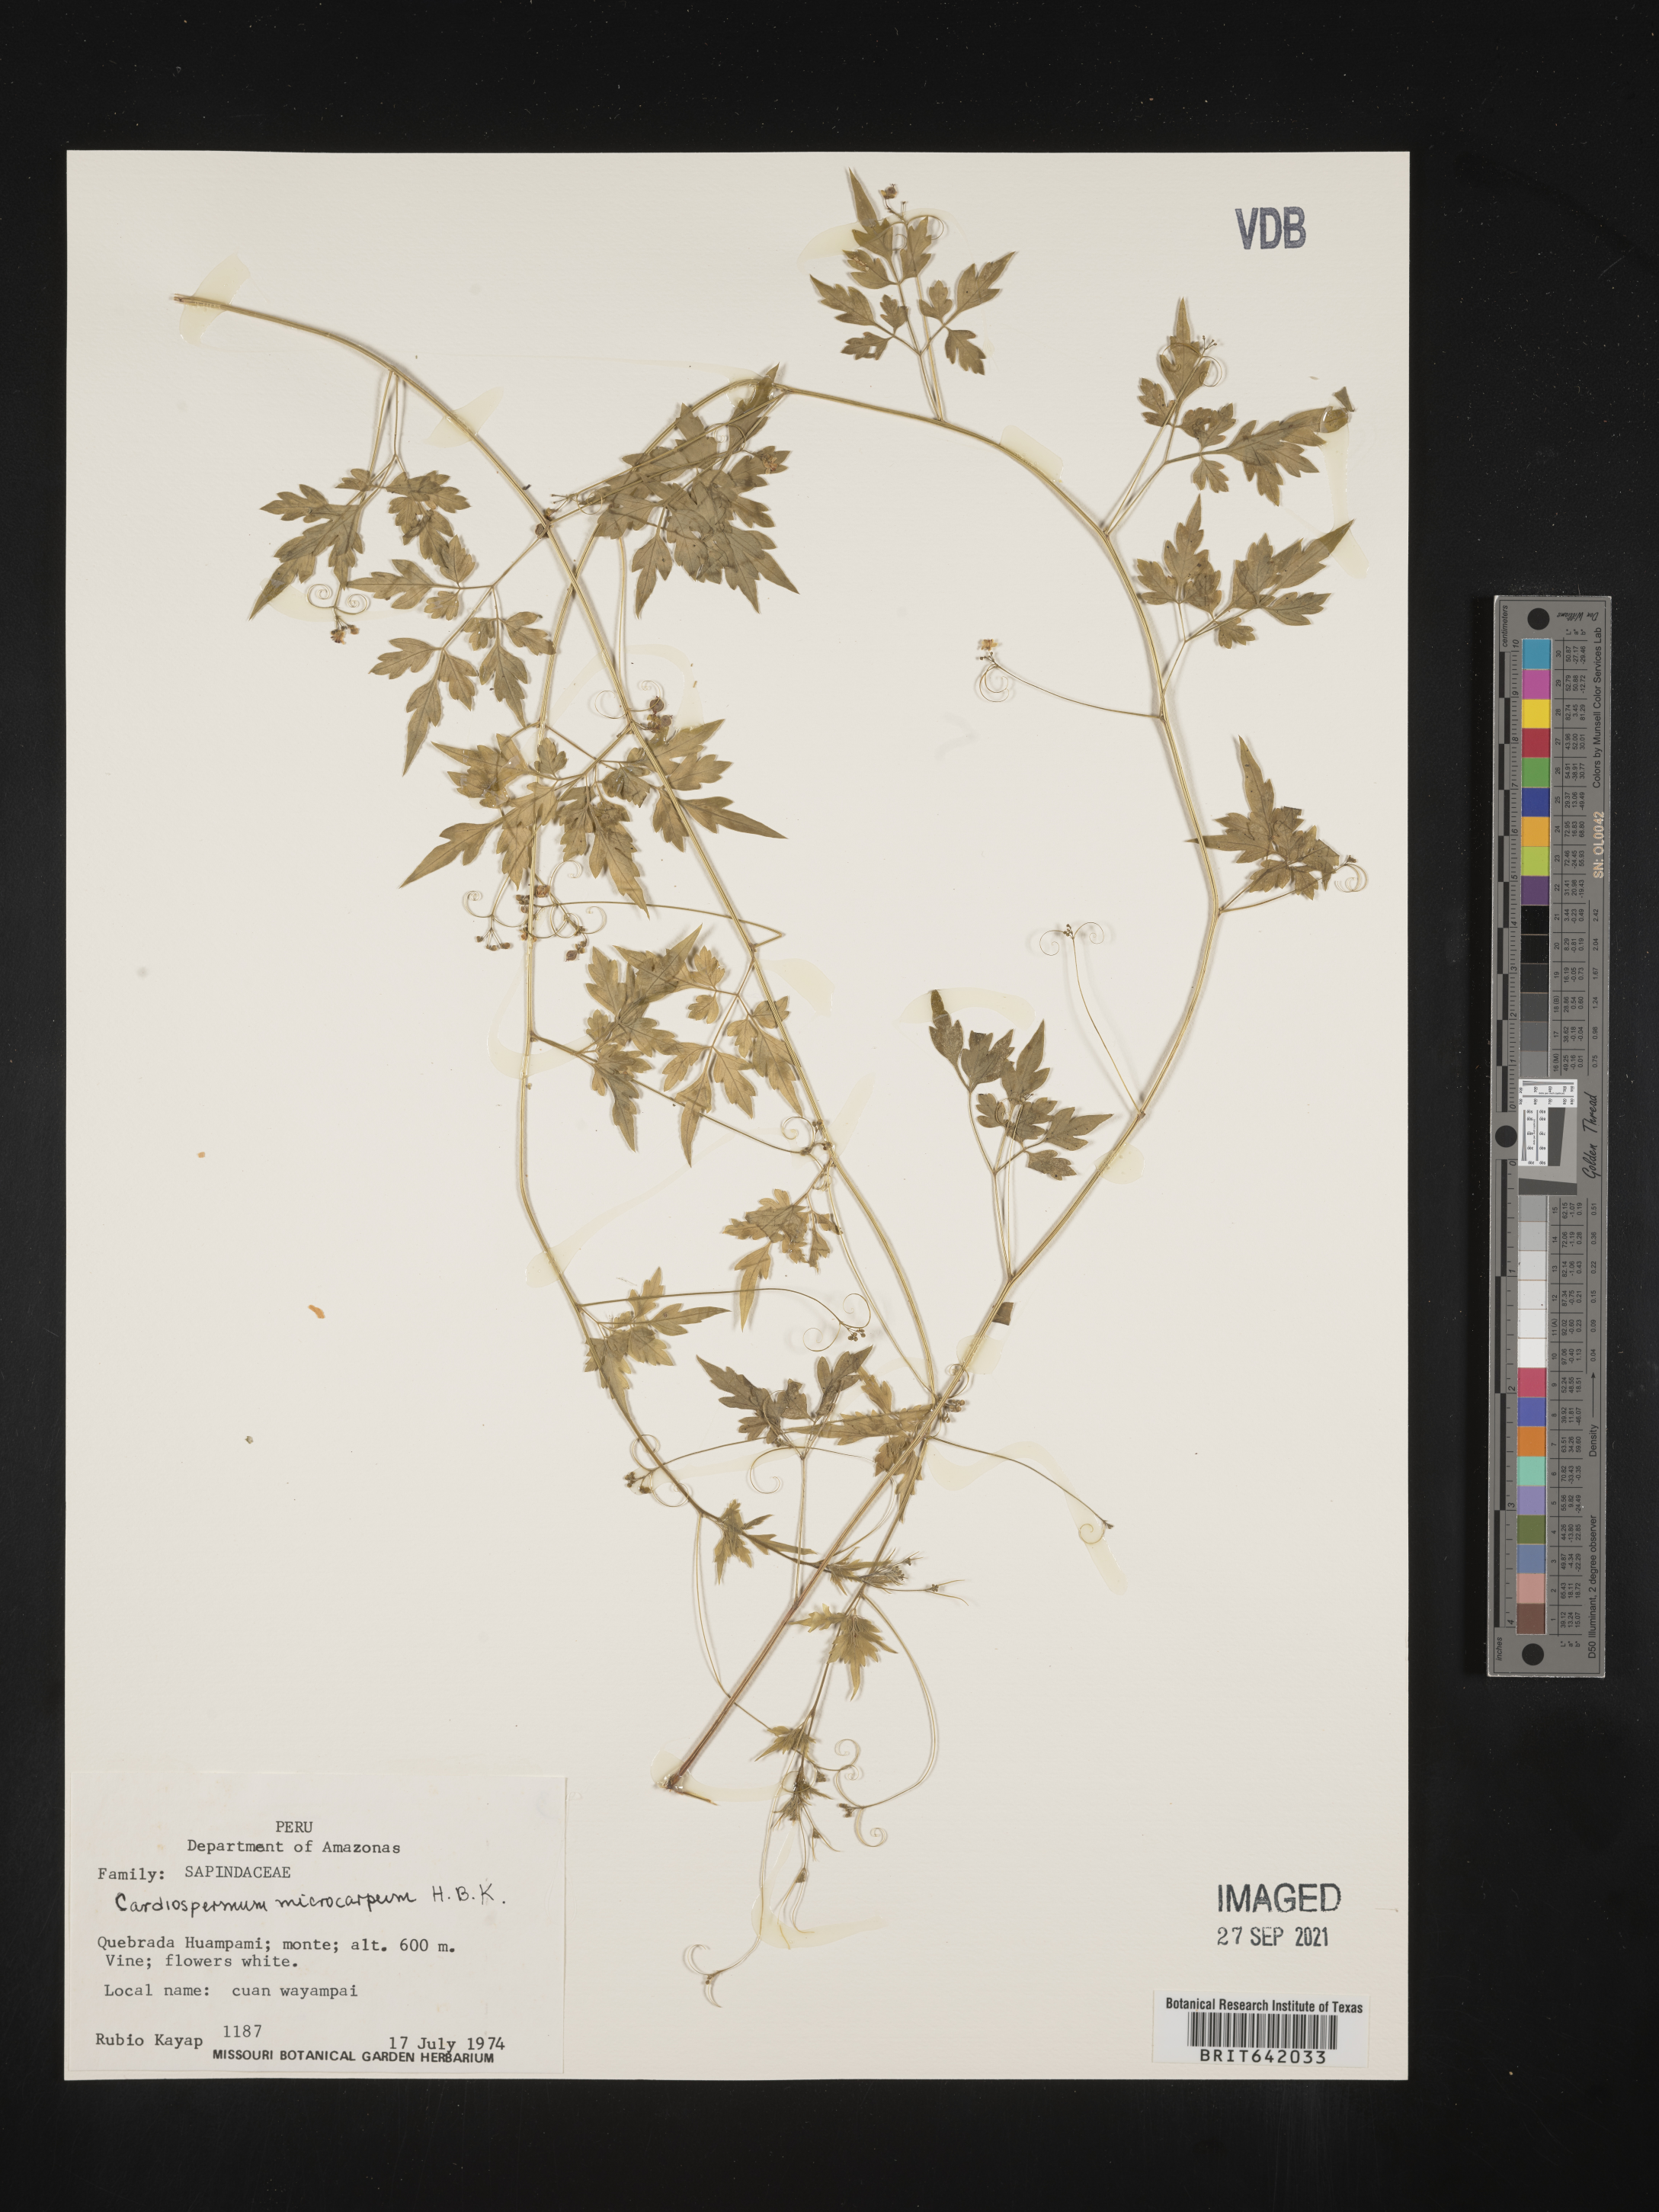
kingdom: Plantae
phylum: Tracheophyta
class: Magnoliopsida
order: Sapindales
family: Sapindaceae
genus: Cardiospermum
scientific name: Cardiospermum
